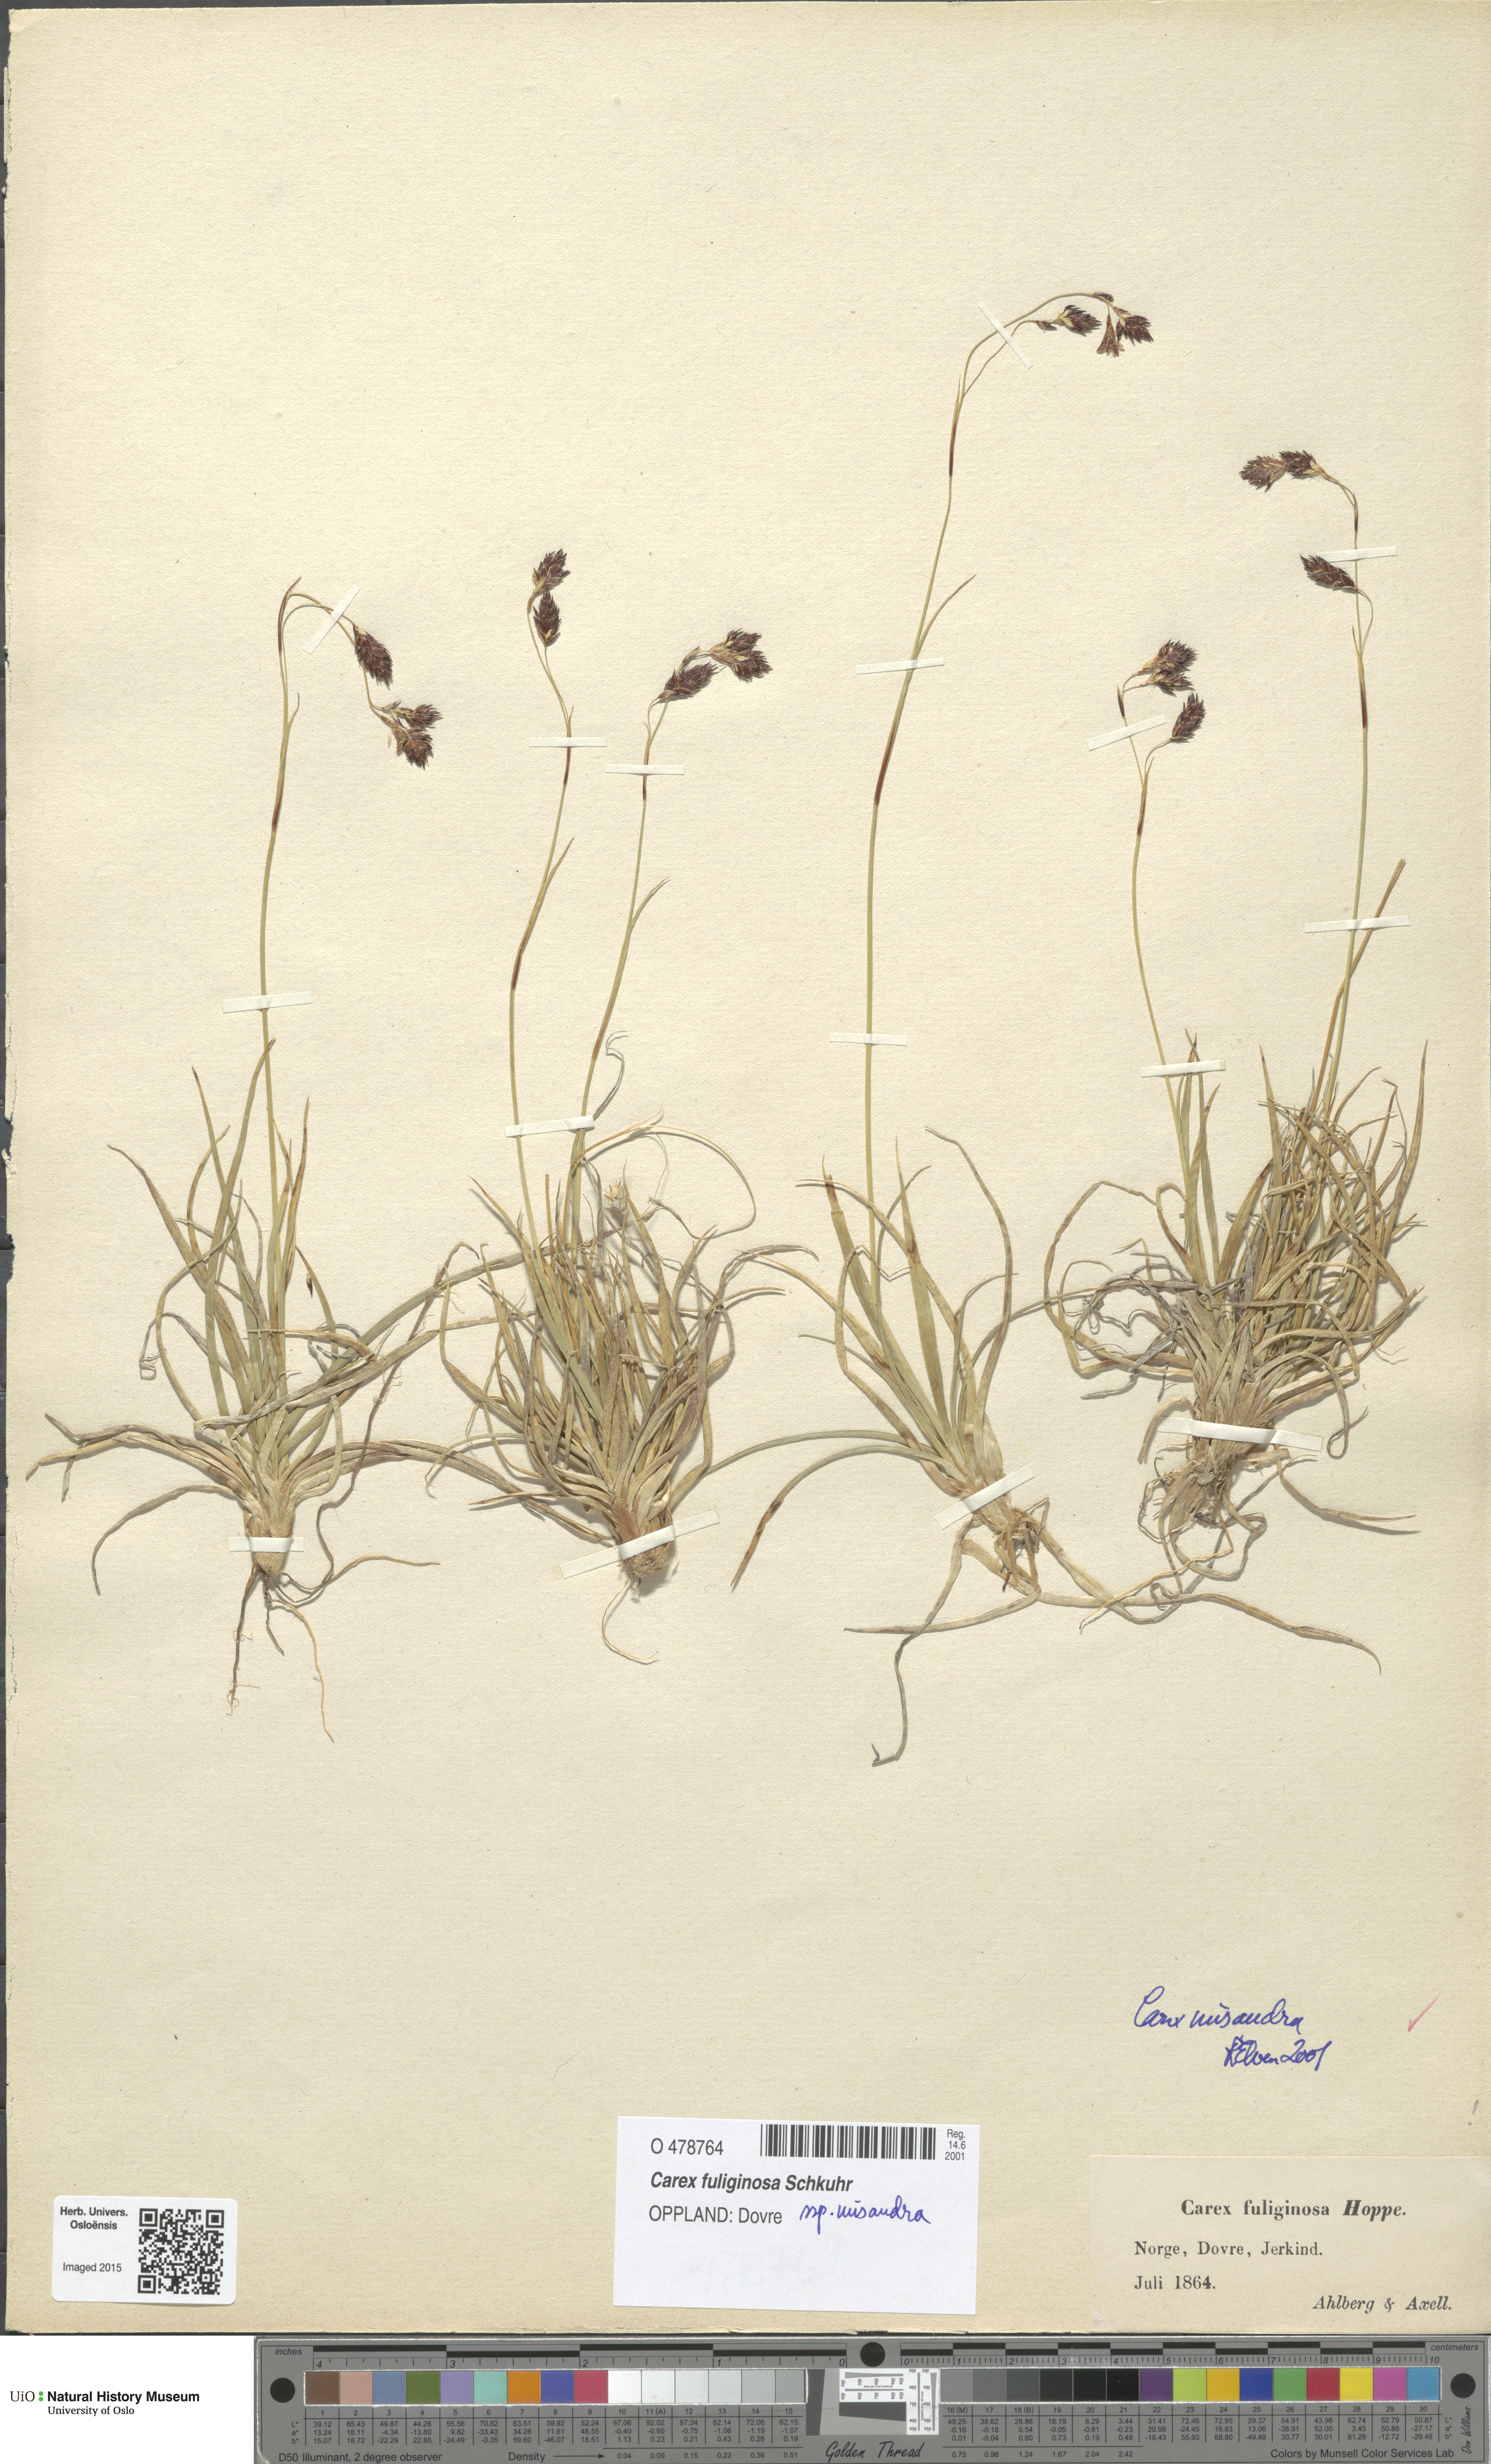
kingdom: Plantae
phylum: Tracheophyta
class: Liliopsida
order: Poales
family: Cyperaceae
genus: Carex
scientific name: Carex fuliginosa
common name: Few-flowered sedge
